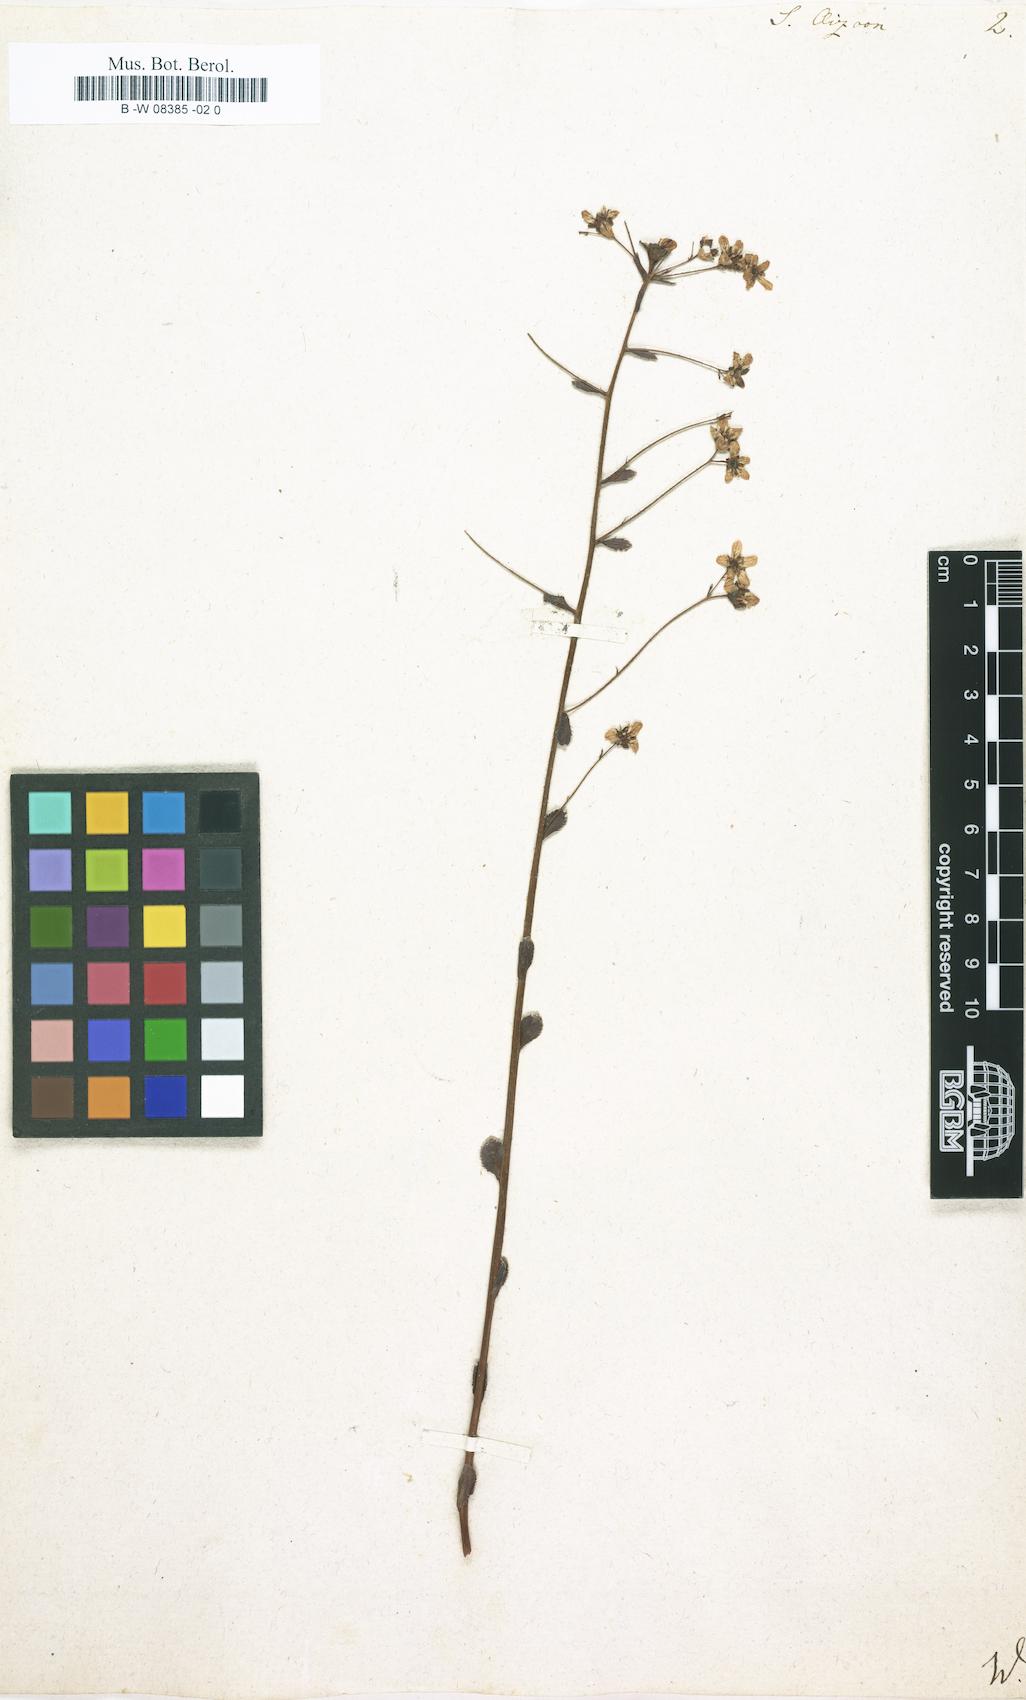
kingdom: Plantae
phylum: Tracheophyta
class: Magnoliopsida
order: Saxifragales
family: Saxifragaceae
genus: Saxifraga
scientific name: Saxifraga aizoon
